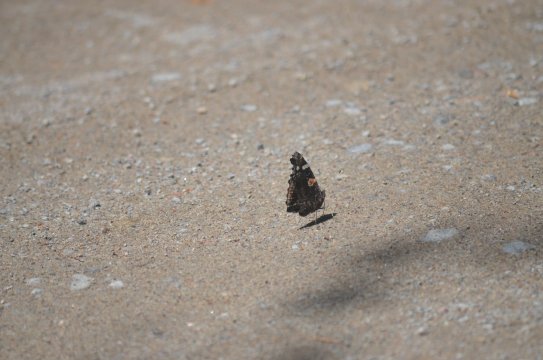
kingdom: Animalia
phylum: Arthropoda
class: Insecta
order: Lepidoptera
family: Nymphalidae
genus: Vanessa
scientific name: Vanessa atalanta
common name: Red Admiral
